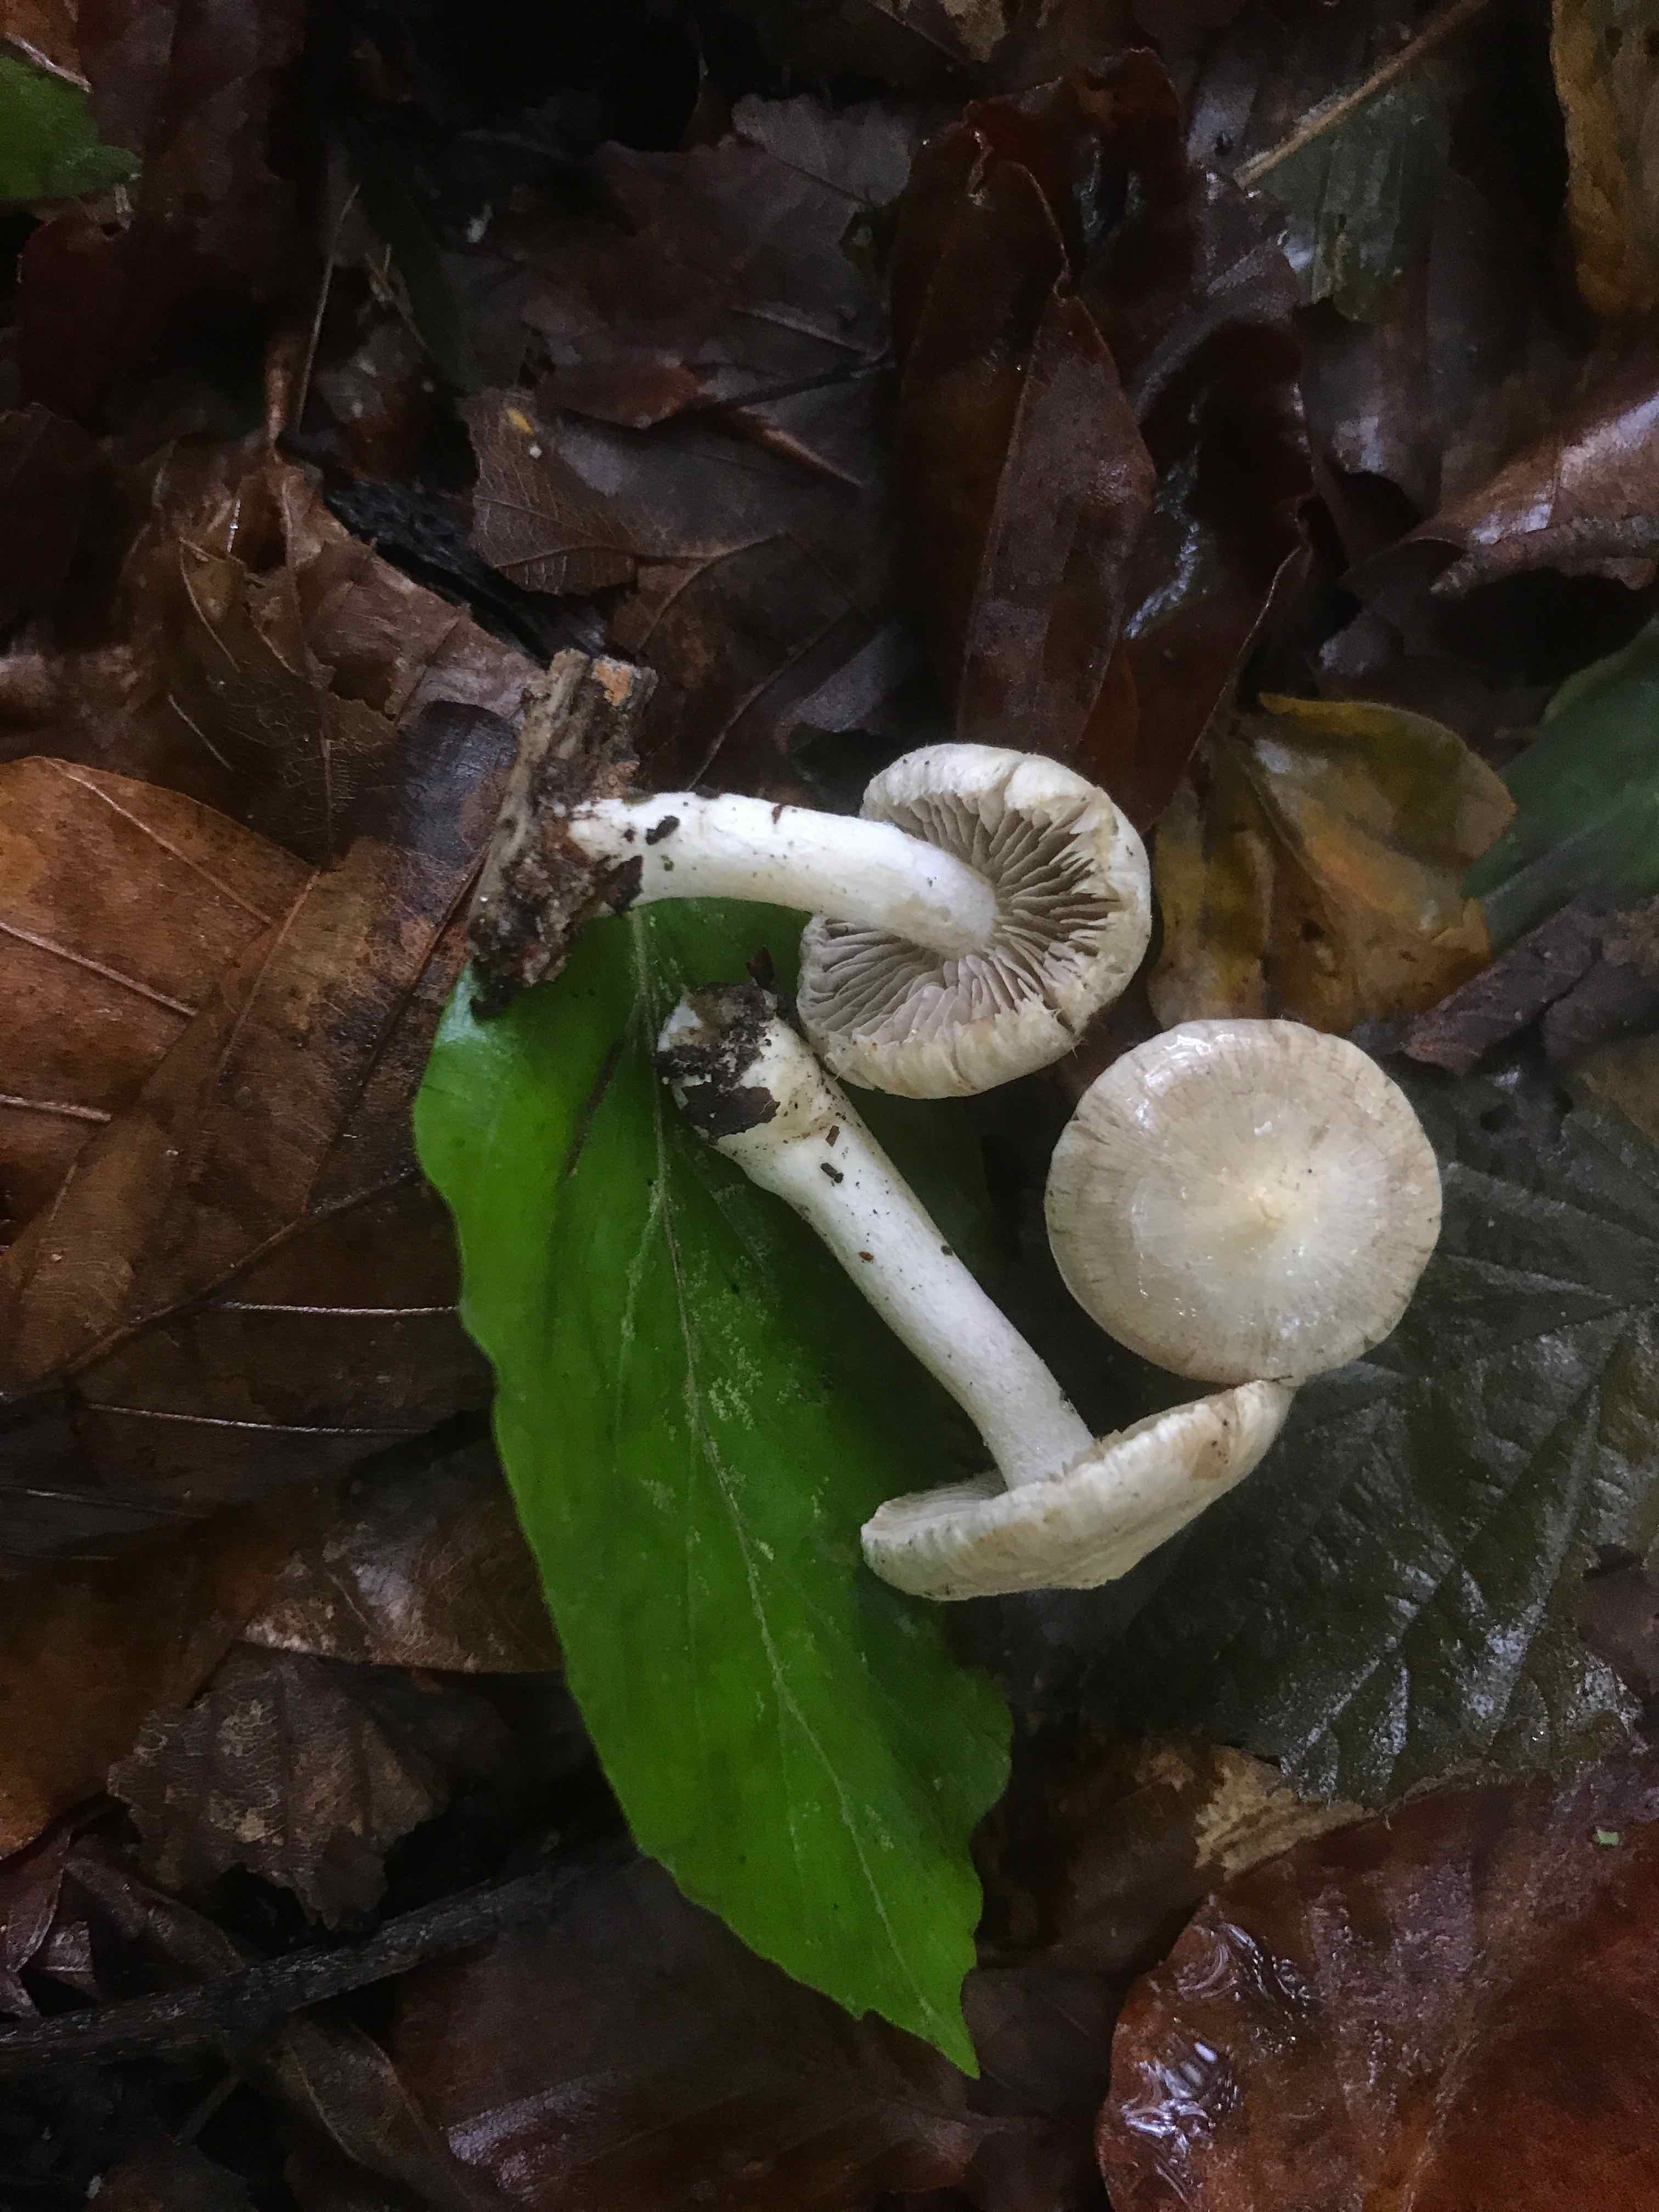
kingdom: Fungi
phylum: Basidiomycota
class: Agaricomycetes
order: Agaricales
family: Inocybaceae
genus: Inocybe
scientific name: Inocybe
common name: almindelig trævlhat
